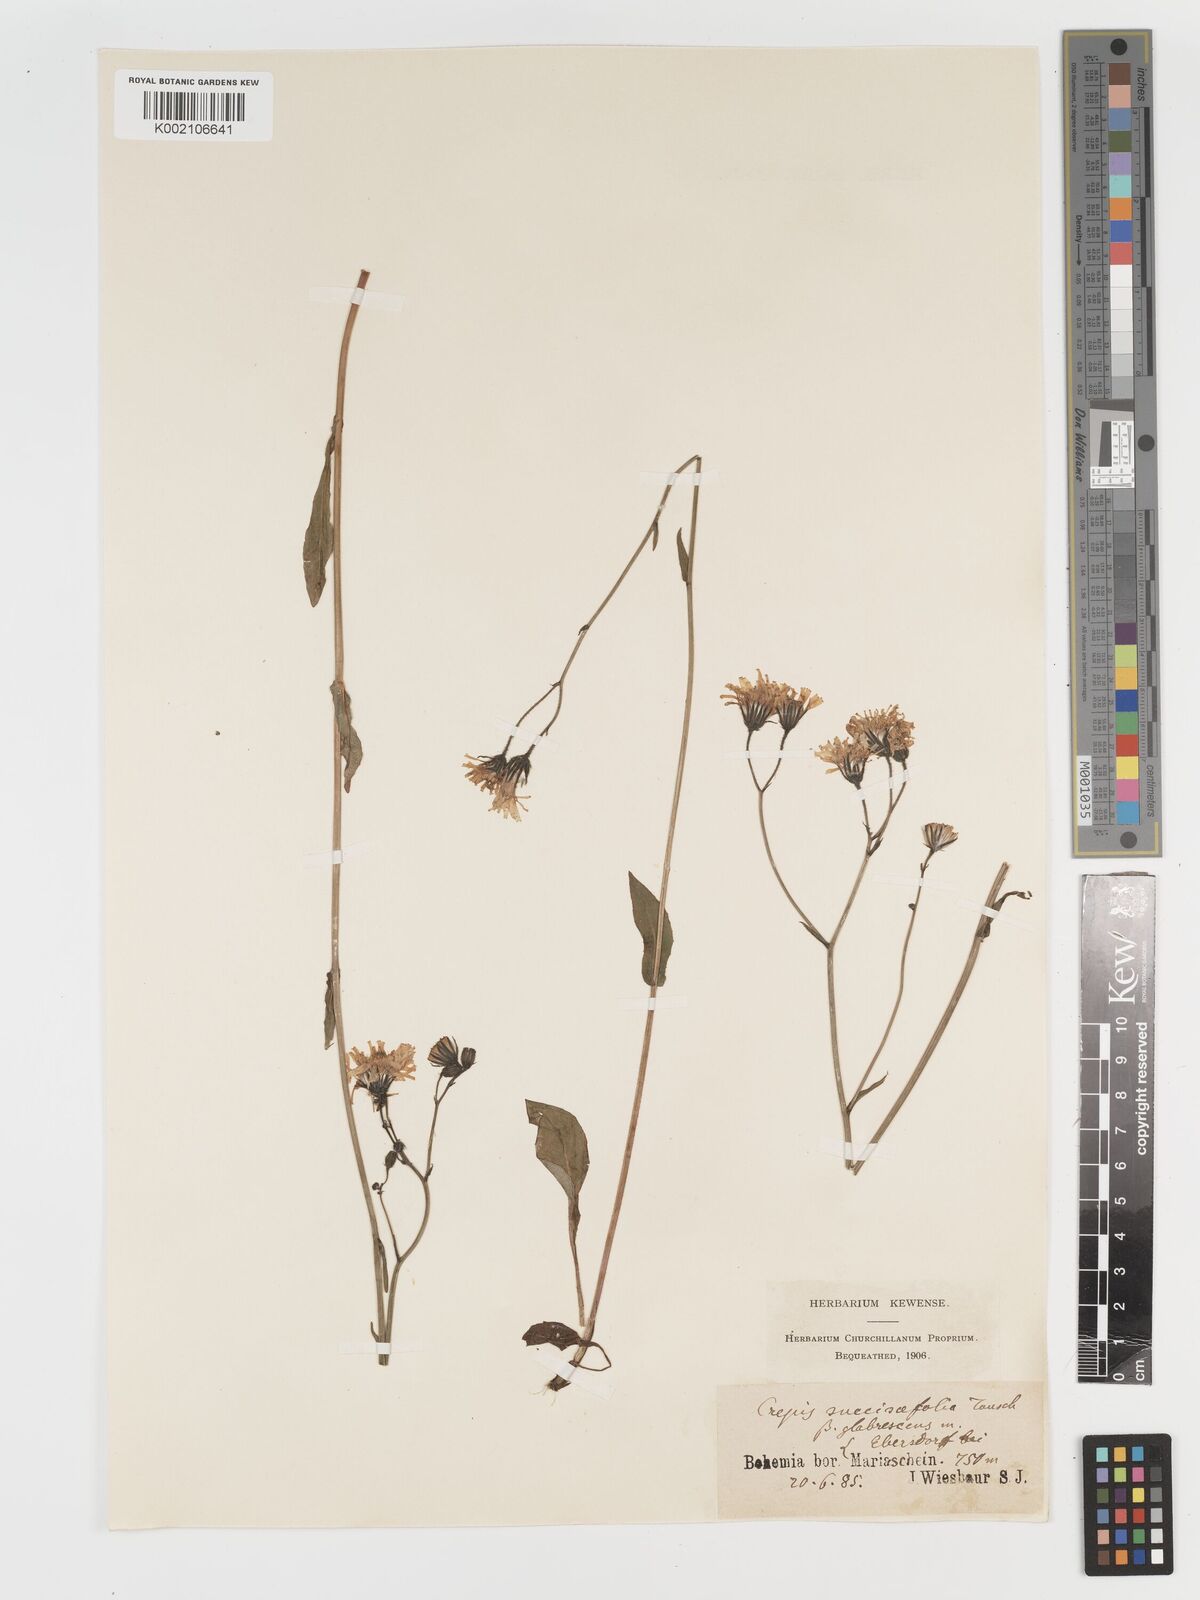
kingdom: Plantae
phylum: Tracheophyta
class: Magnoliopsida
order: Asterales
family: Asteraceae
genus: Crepis
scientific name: Crepis mollis
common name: Northern hawk's-beard
